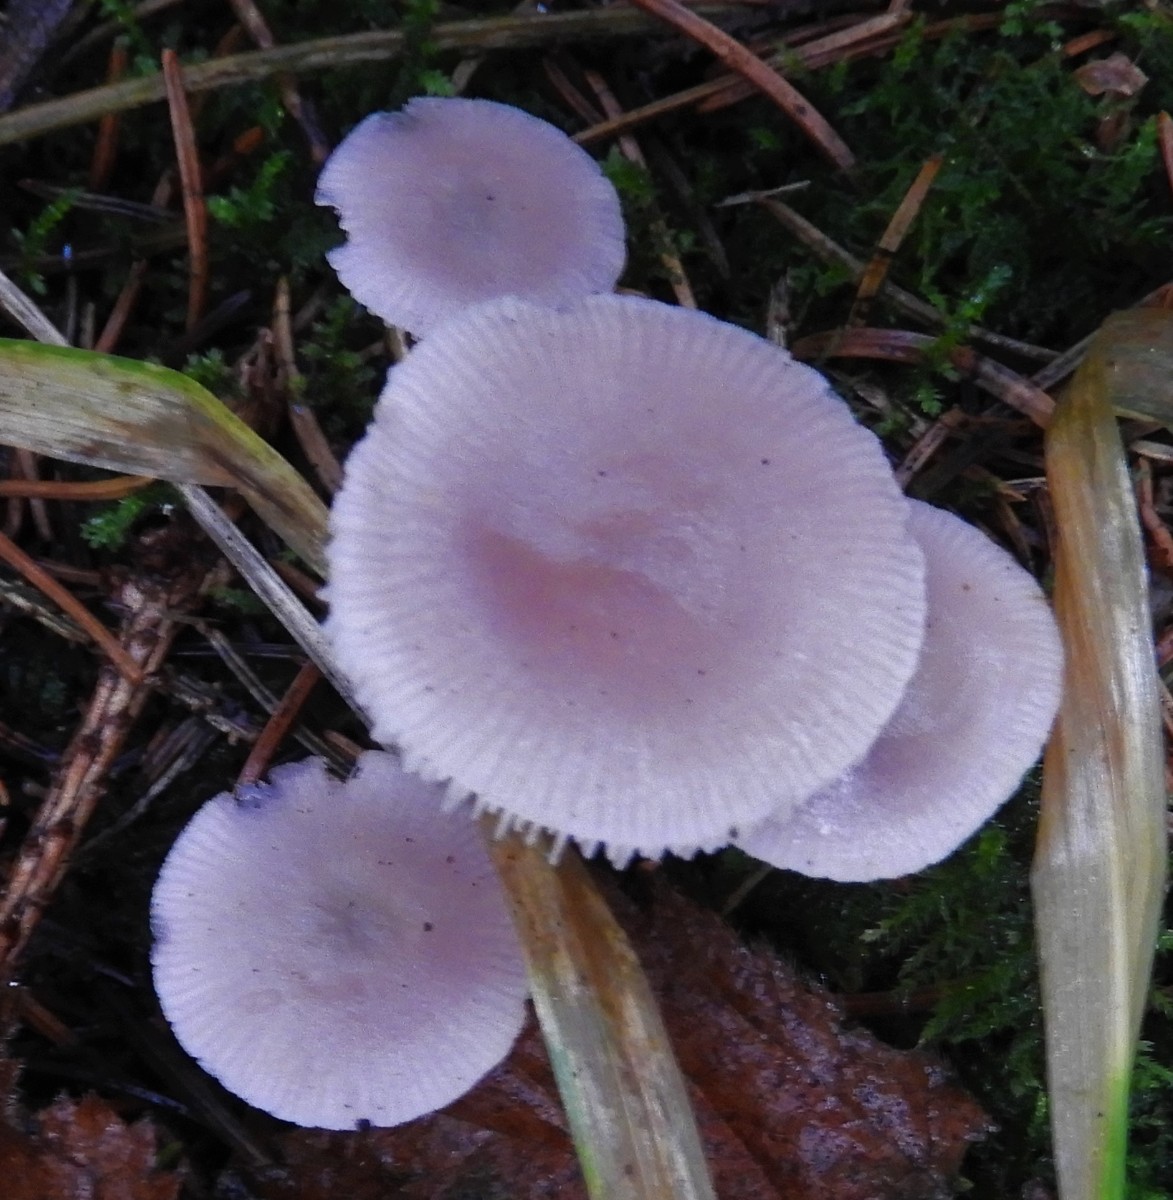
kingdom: Fungi
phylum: Basidiomycota
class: Agaricomycetes
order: Agaricales
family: Mycenaceae
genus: Mycena
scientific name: Mycena rosea
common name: rosa huesvamp
